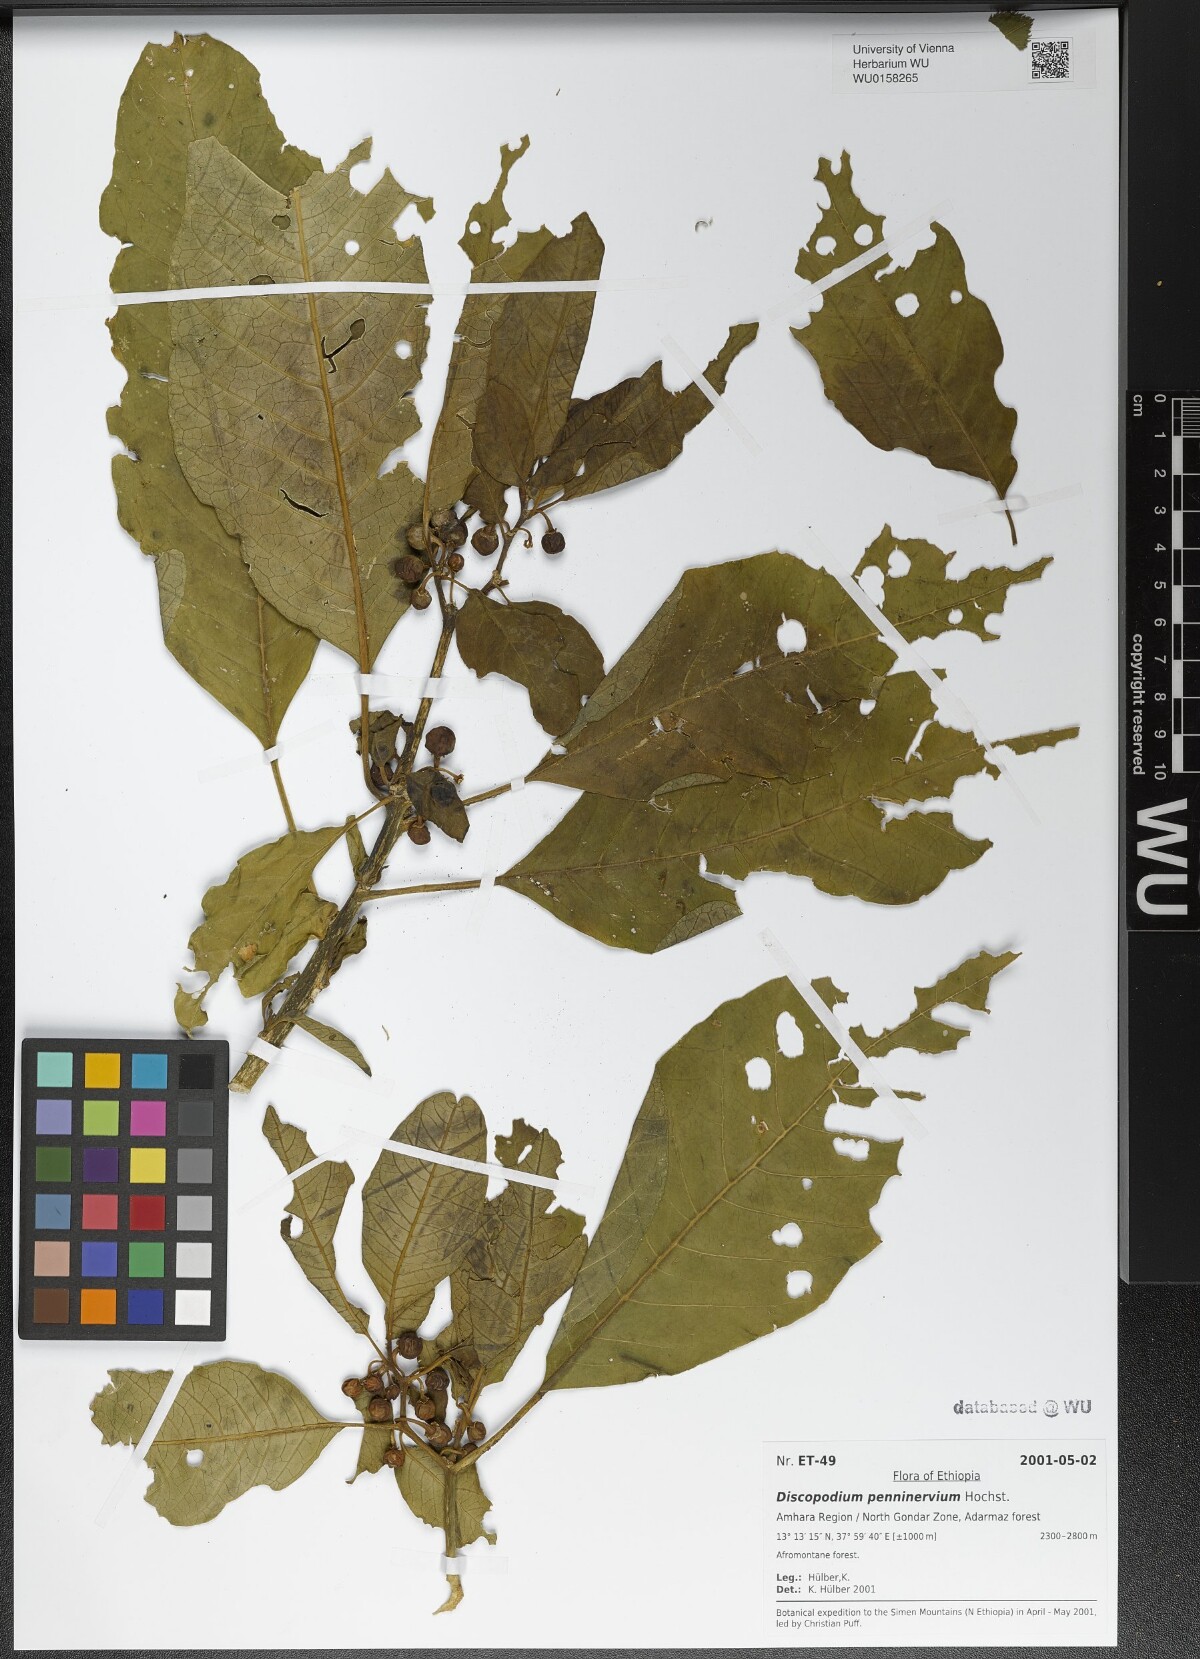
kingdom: Plantae
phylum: Tracheophyta
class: Magnoliopsida
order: Solanales
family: Solanaceae
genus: Discopodium
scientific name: Discopodium penninervium
